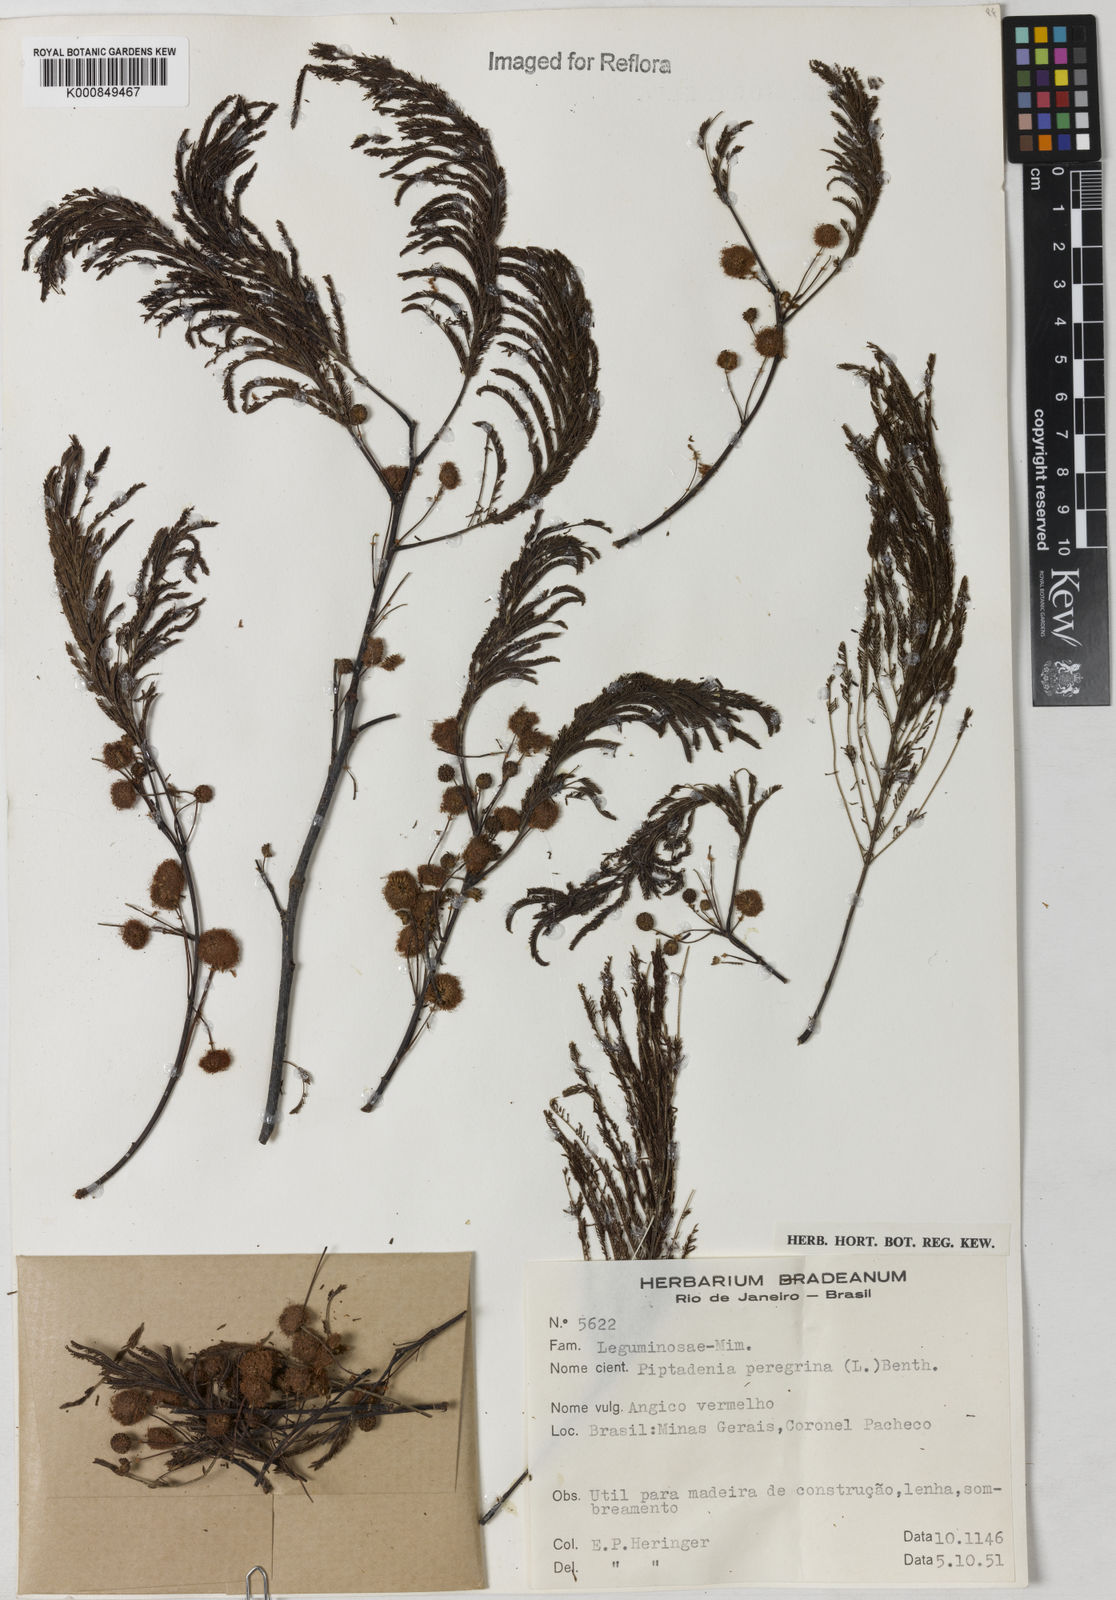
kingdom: Plantae
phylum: Tracheophyta
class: Magnoliopsida
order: Fabales
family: Fabaceae
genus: Anadenanthera
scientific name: Anadenanthera peregrina
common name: Cohoba
